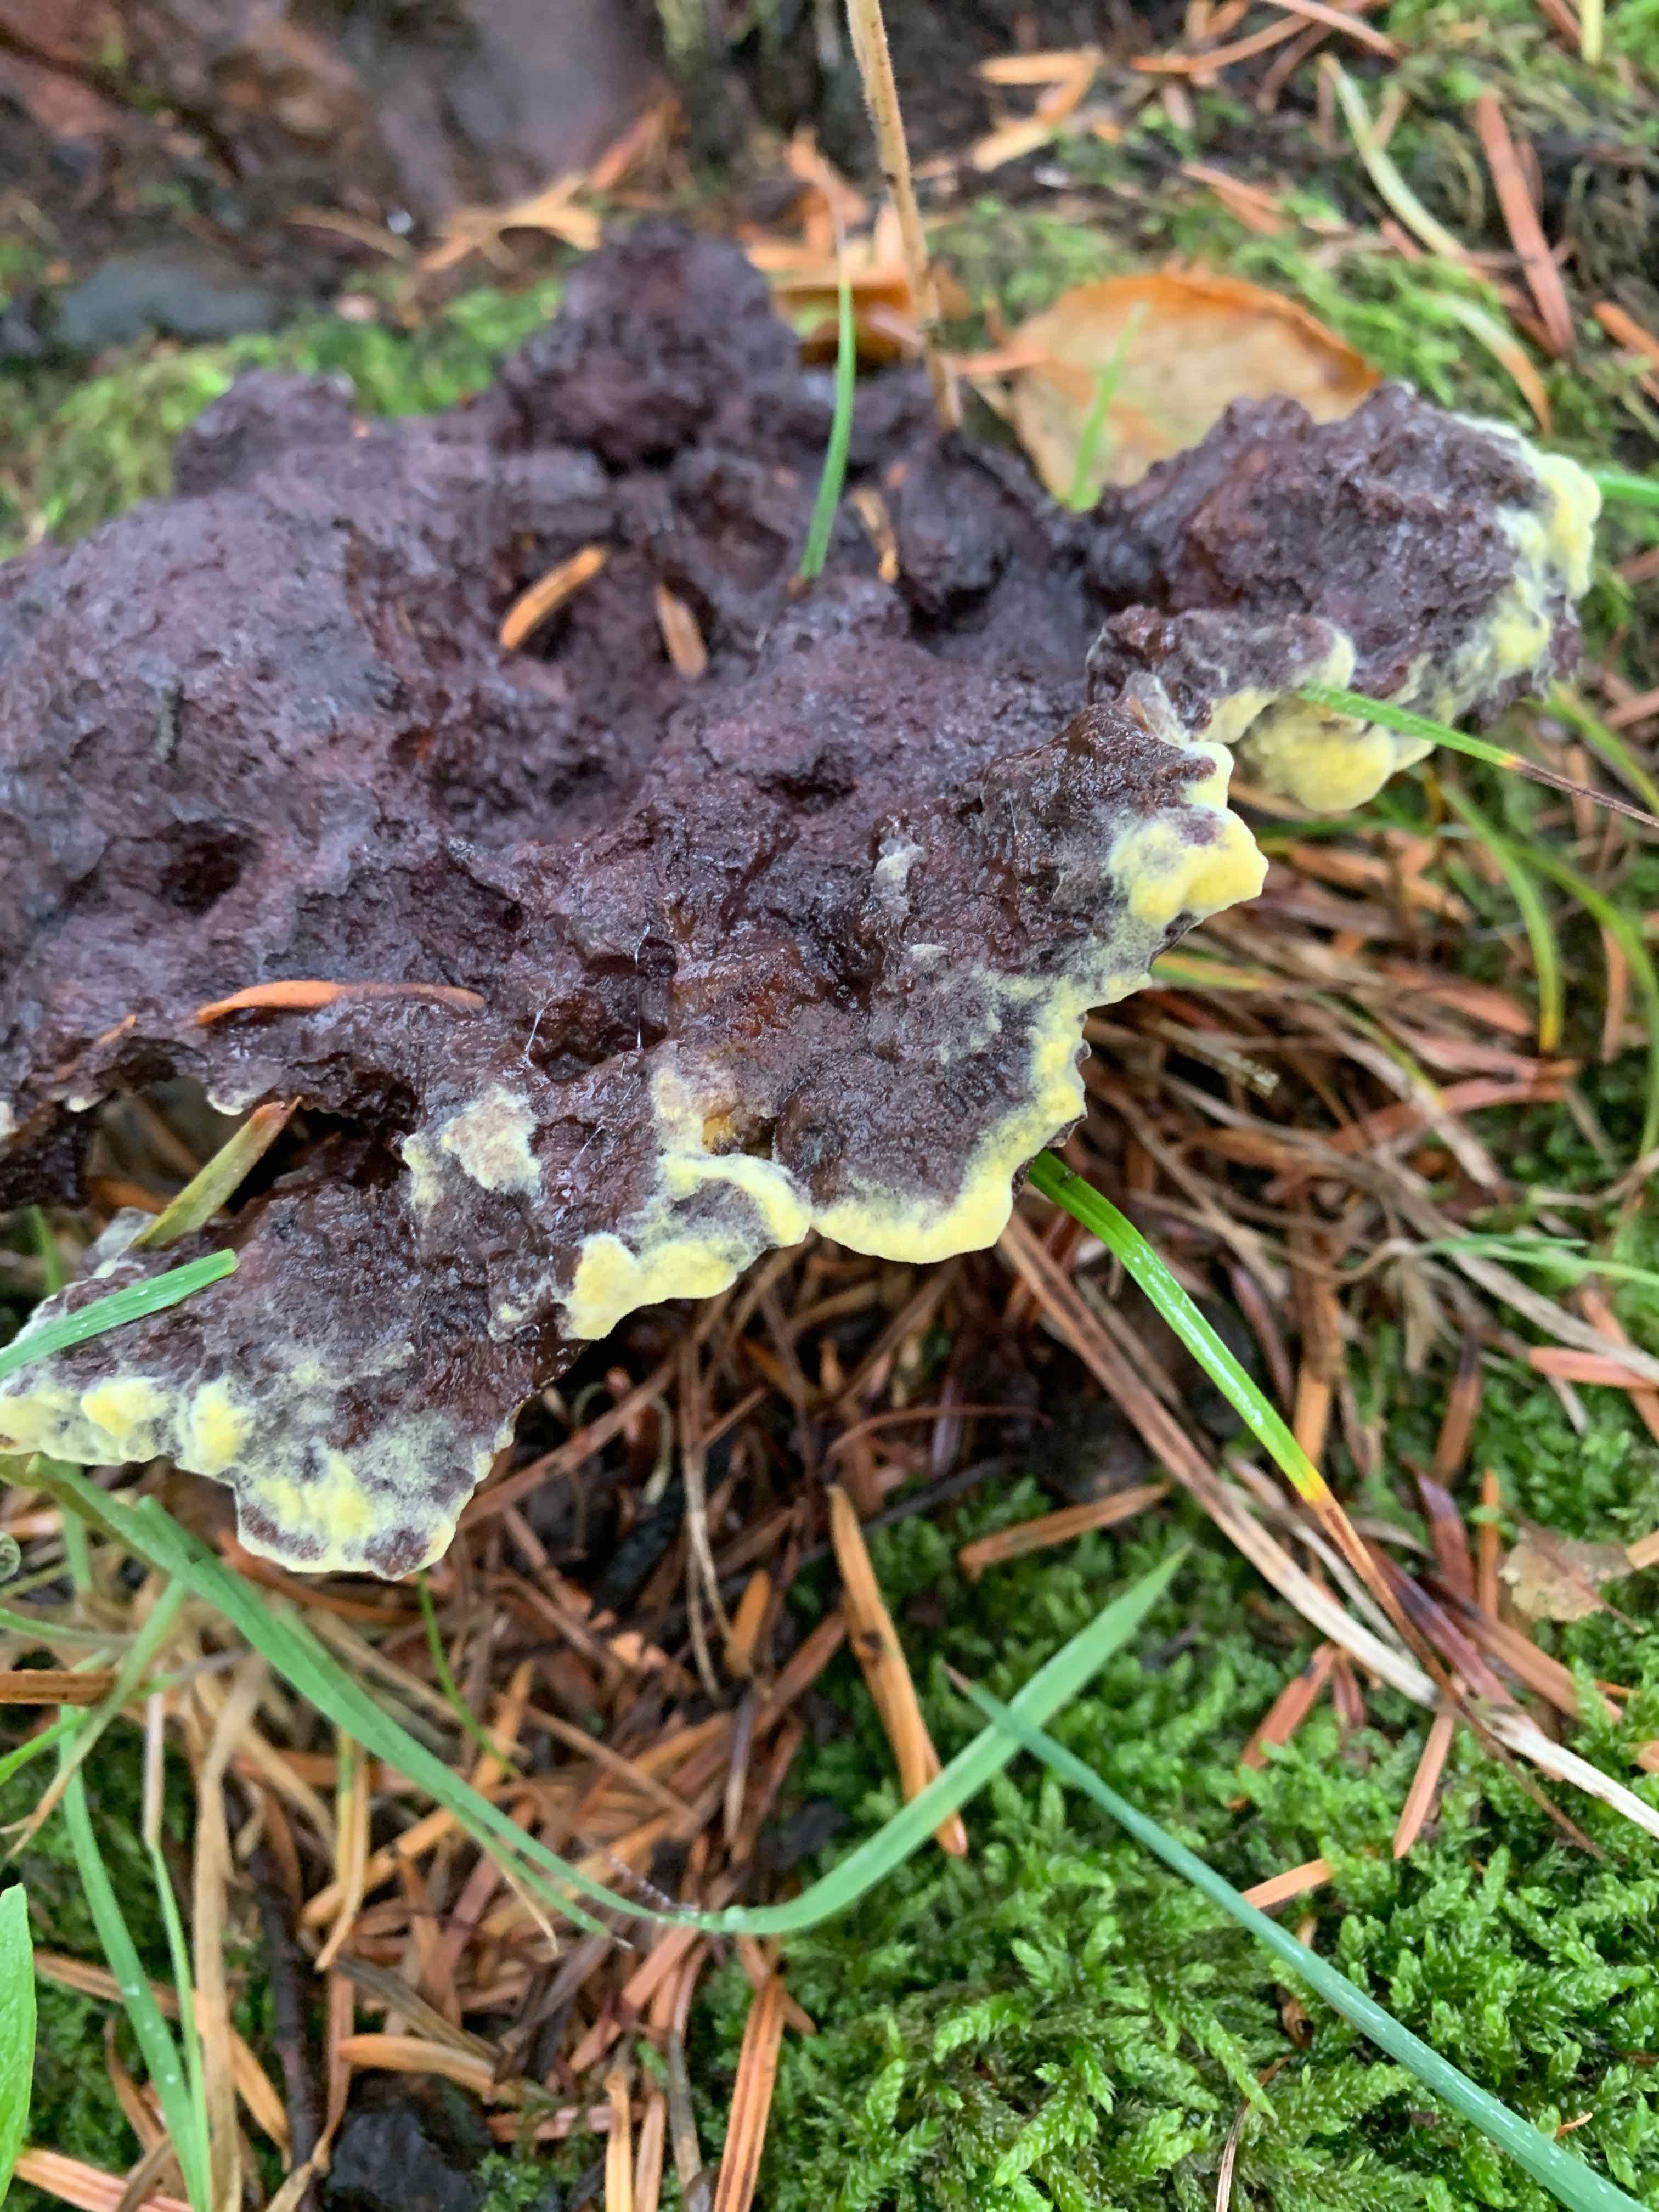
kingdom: Fungi
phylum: Basidiomycota
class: Agaricomycetes
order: Polyporales
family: Laetiporaceae
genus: Phaeolus
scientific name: Phaeolus schweinitzii
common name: brunporesvamp
